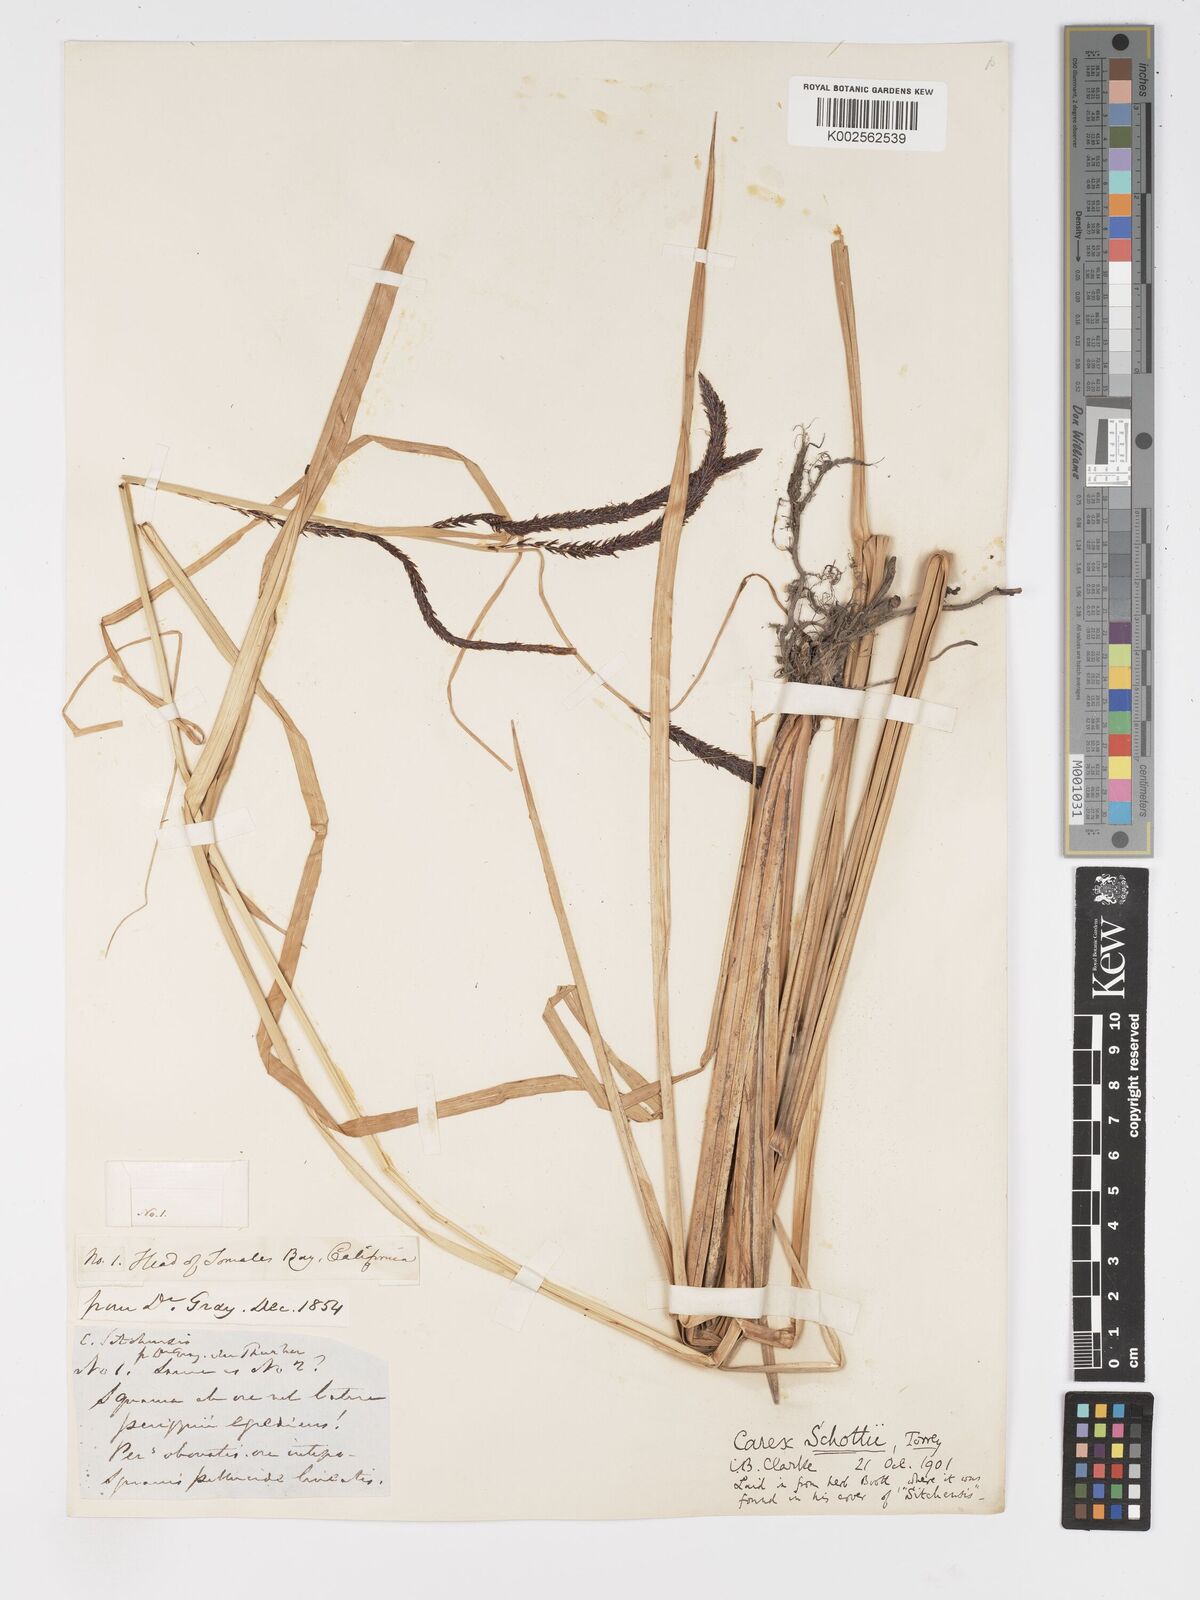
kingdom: Plantae
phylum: Tracheophyta
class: Liliopsida
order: Poales
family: Cyperaceae
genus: Carex
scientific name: Carex schottii
